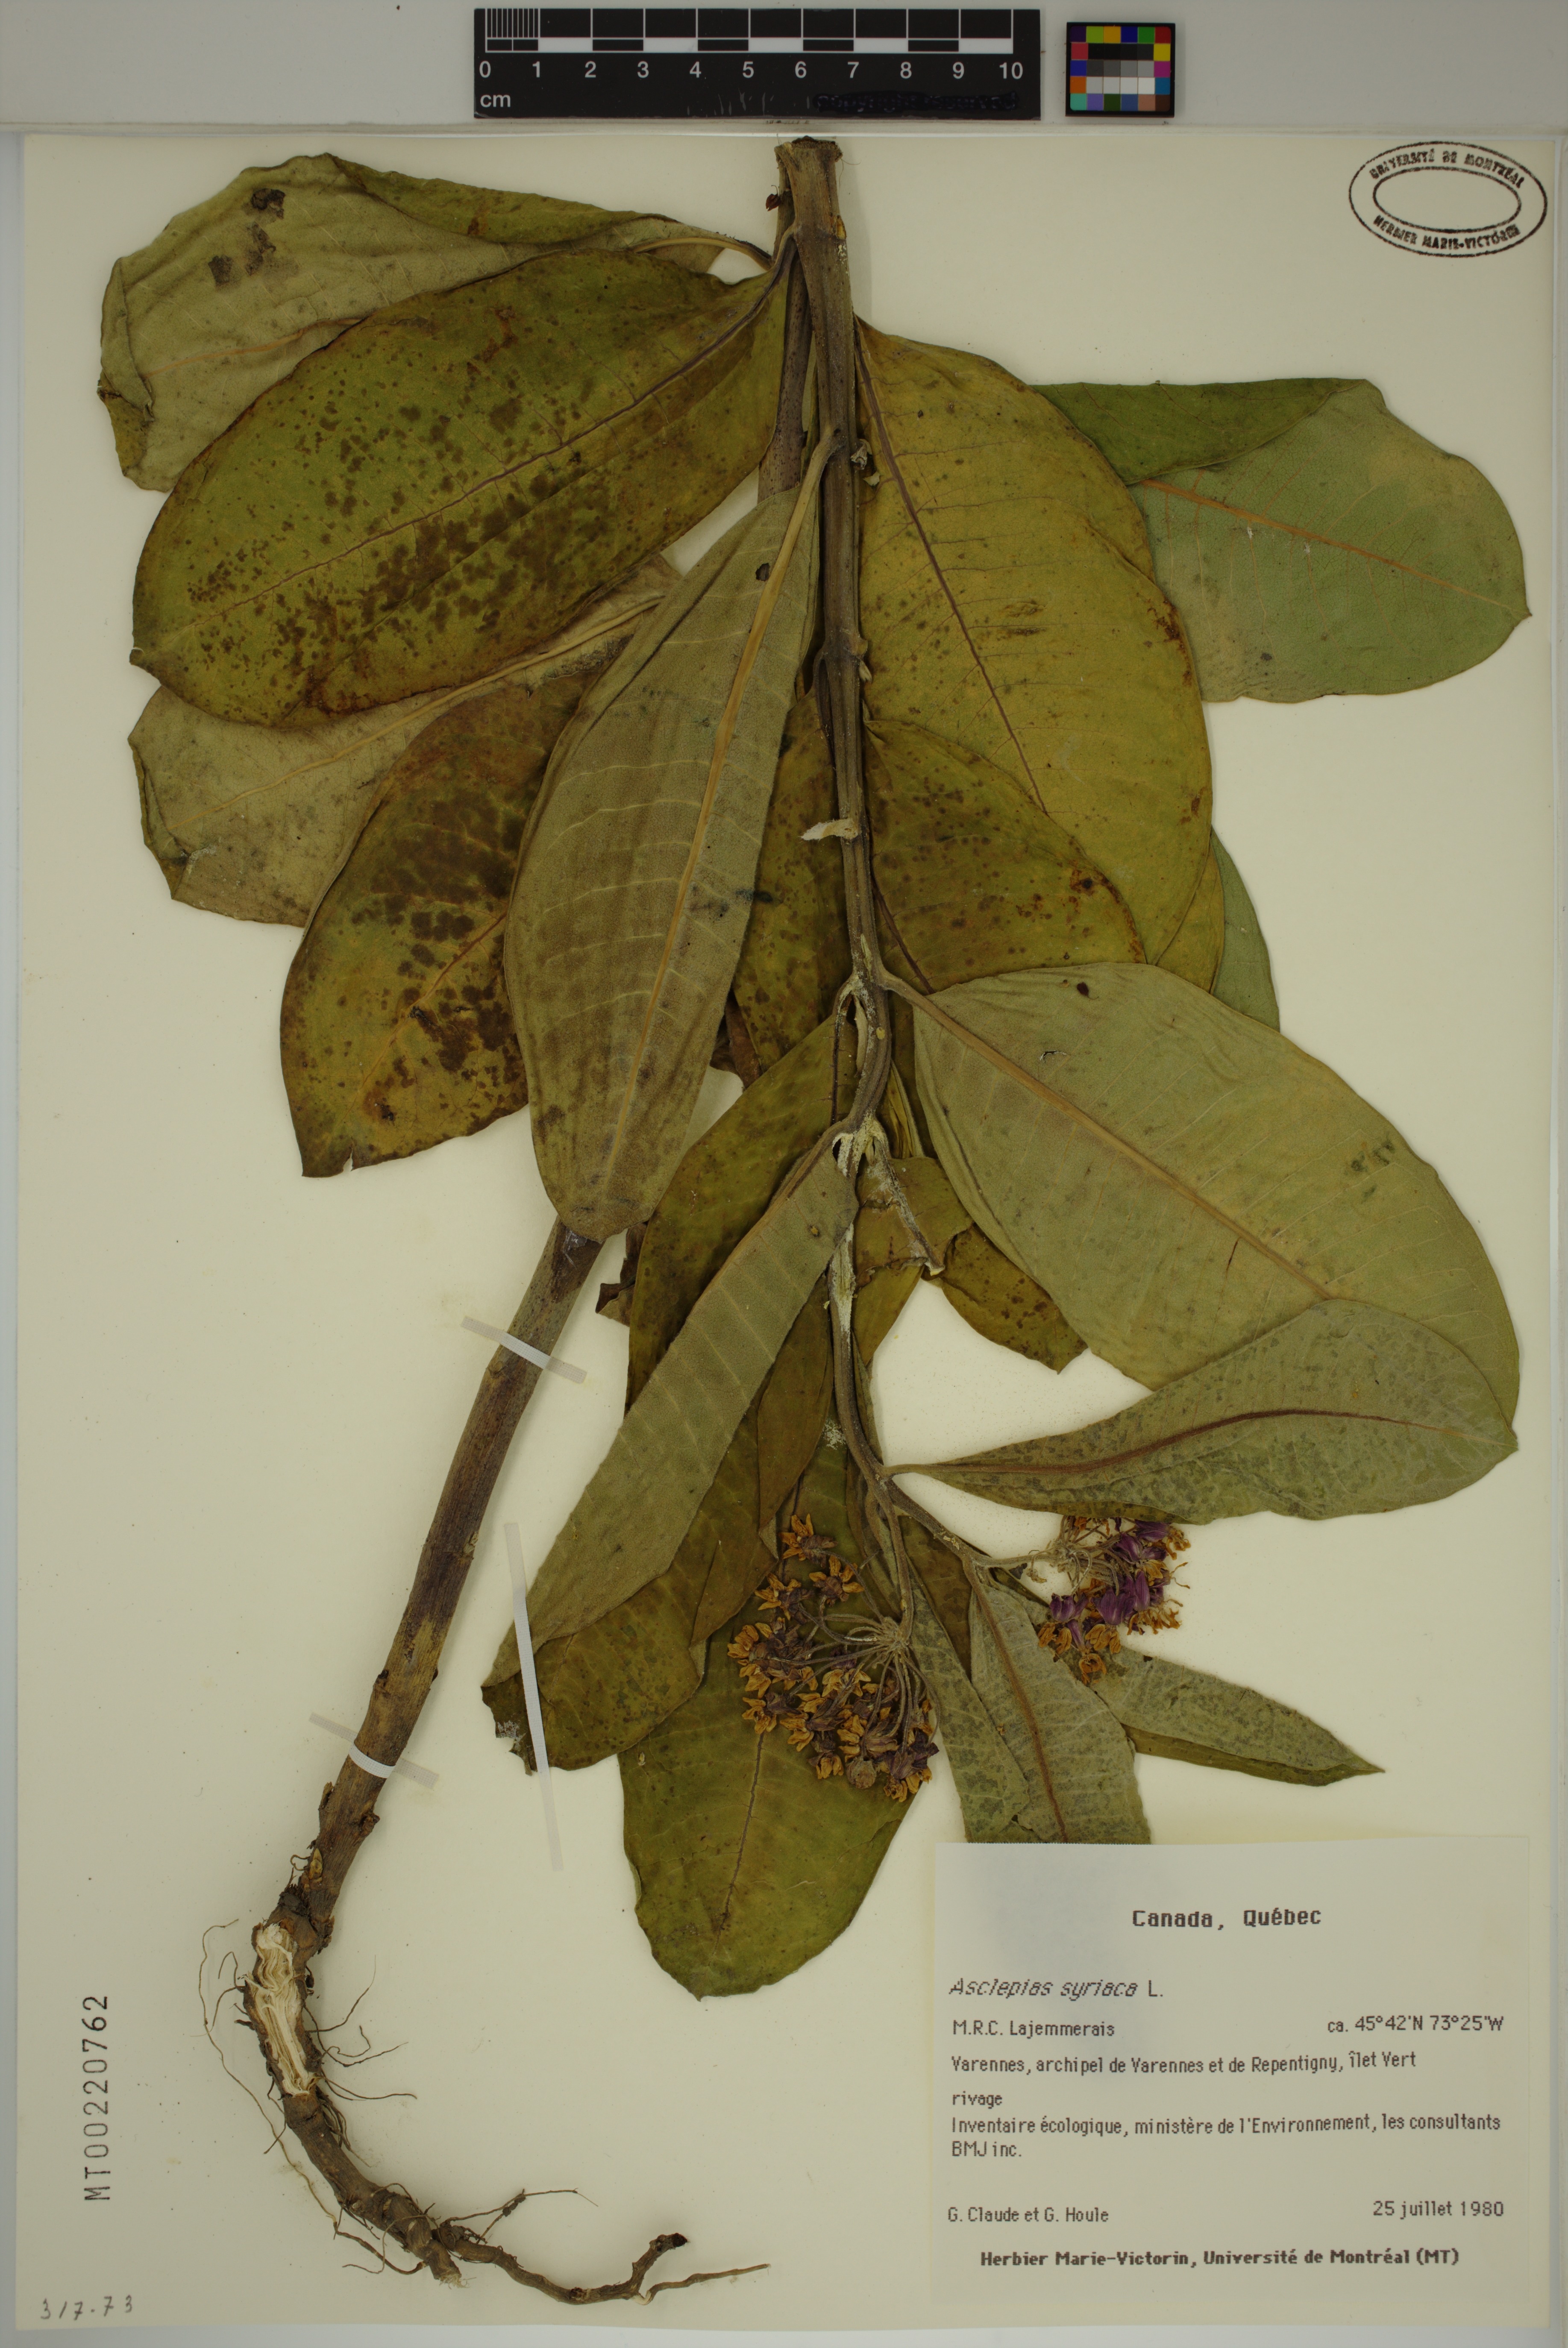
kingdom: Plantae
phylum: Tracheophyta
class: Magnoliopsida
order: Gentianales
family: Apocynaceae
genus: Asclepias
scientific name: Asclepias syriaca
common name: Common milkweed
